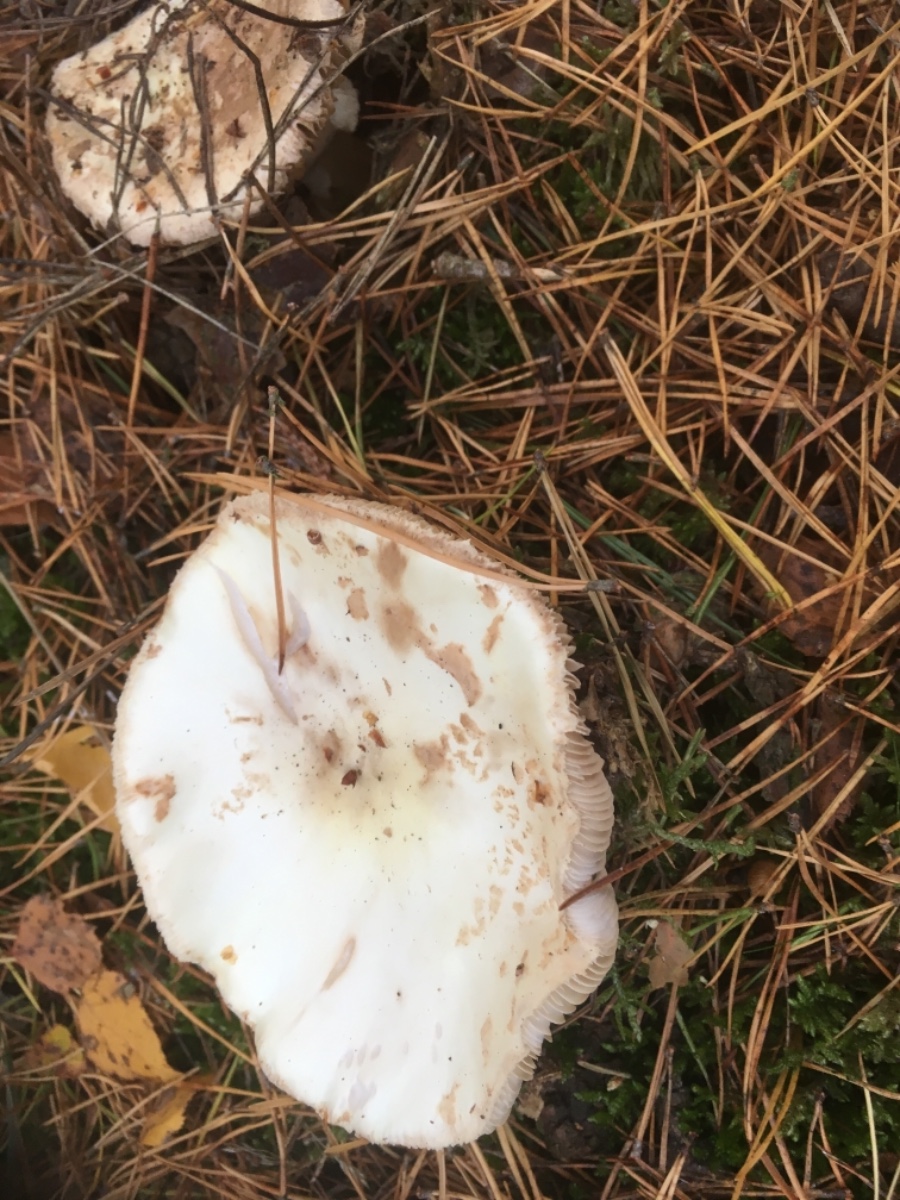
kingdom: Fungi
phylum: Basidiomycota
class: Agaricomycetes
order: Agaricales
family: Amanitaceae
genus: Amanita
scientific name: Amanita citrina
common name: kugleknoldet fluesvamp
